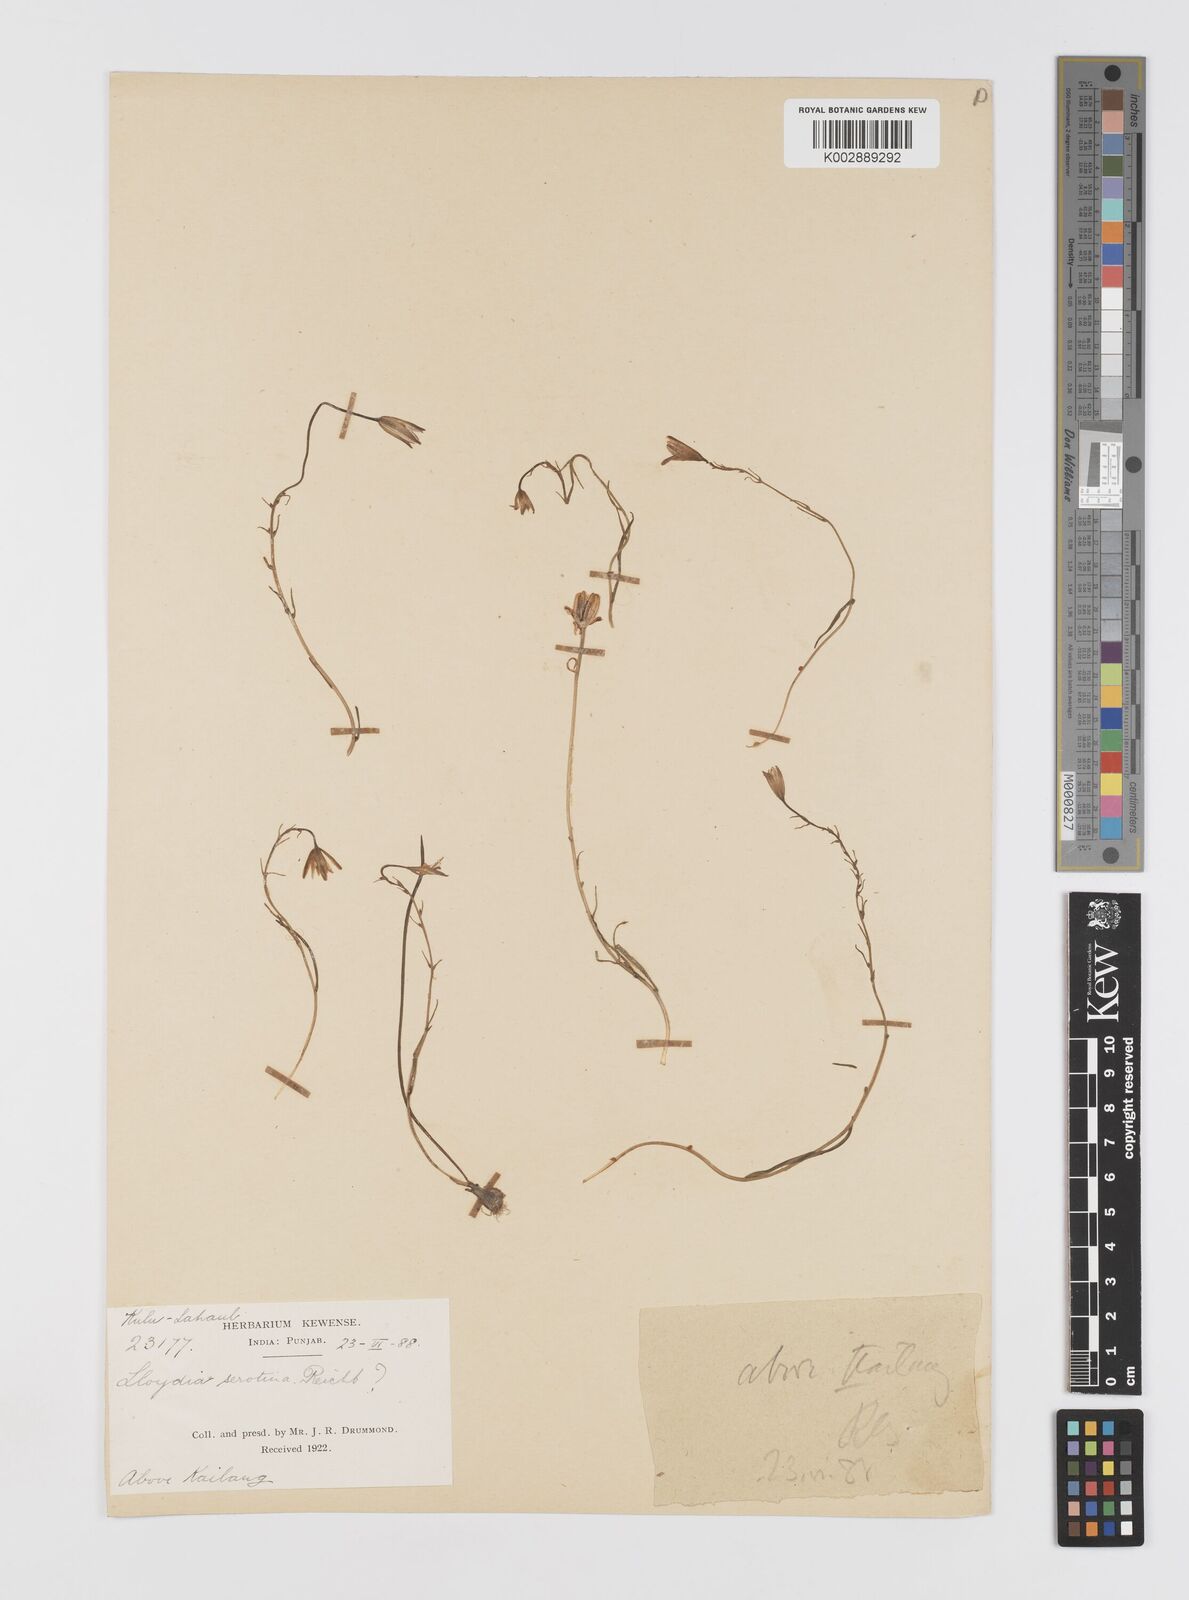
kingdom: Plantae
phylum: Tracheophyta
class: Liliopsida
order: Liliales
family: Liliaceae
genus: Gagea
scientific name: Gagea
